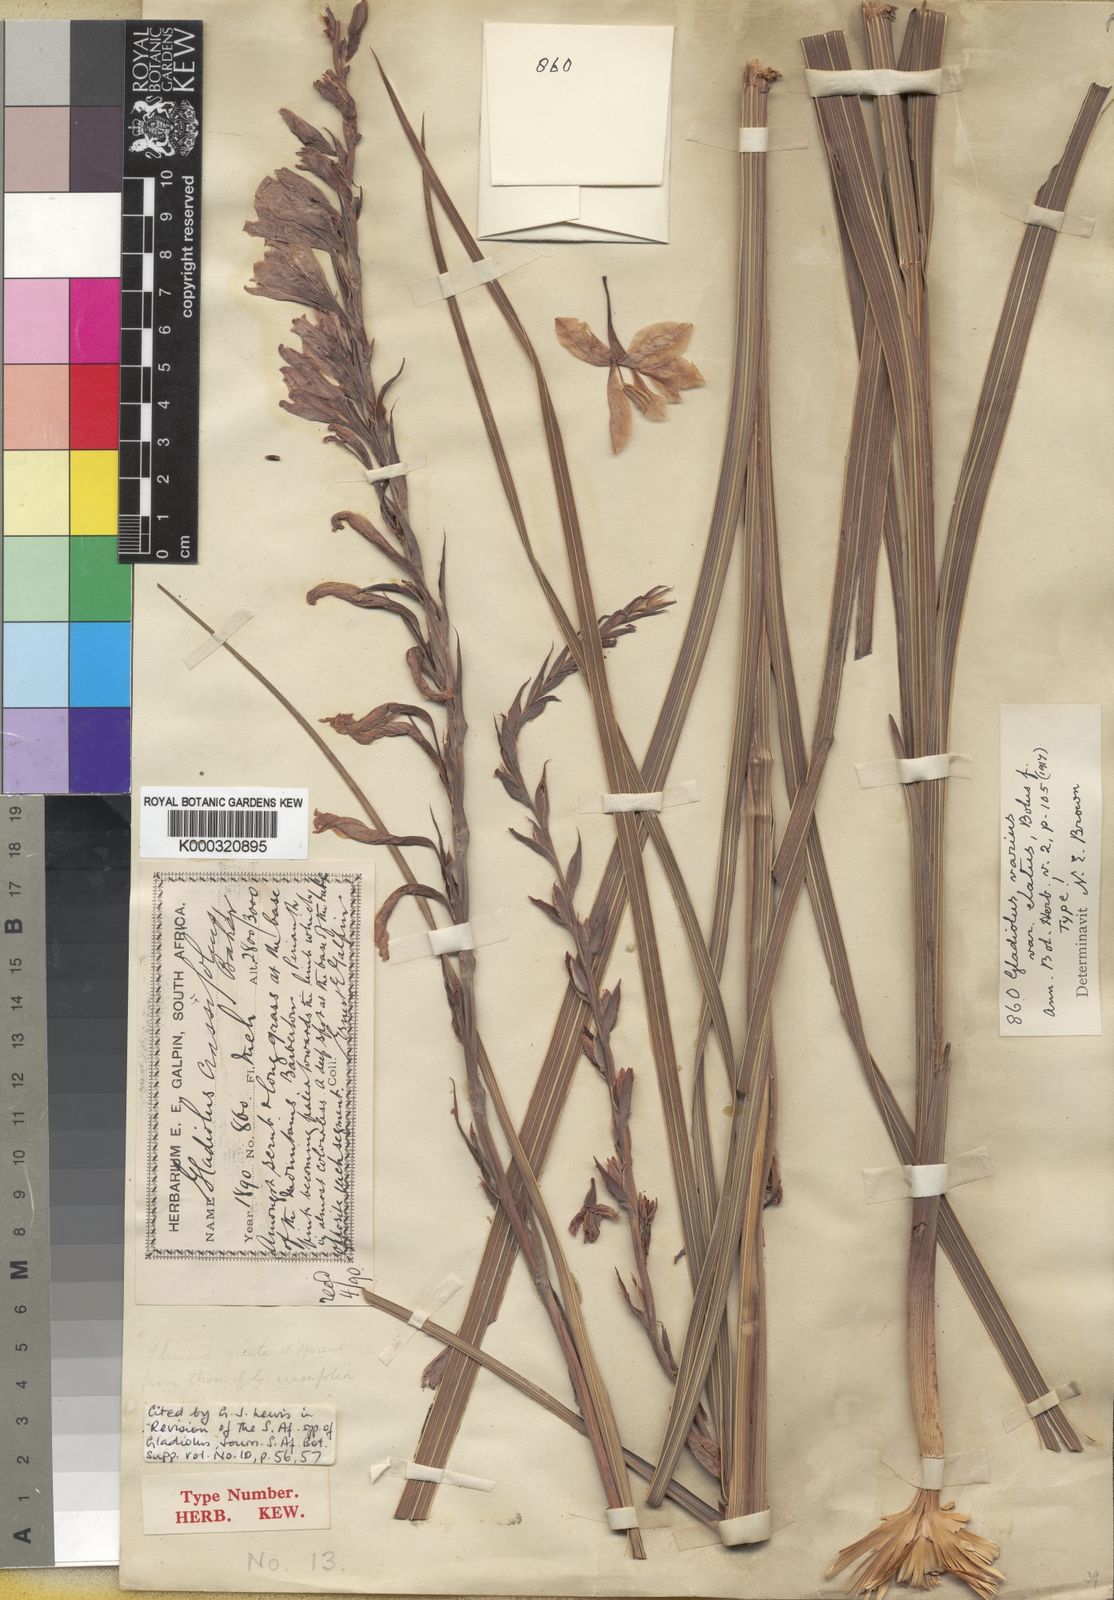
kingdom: Plantae
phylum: Tracheophyta
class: Liliopsida
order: Asparagales
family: Iridaceae
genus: Gladiolus
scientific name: Gladiolus hollandii
